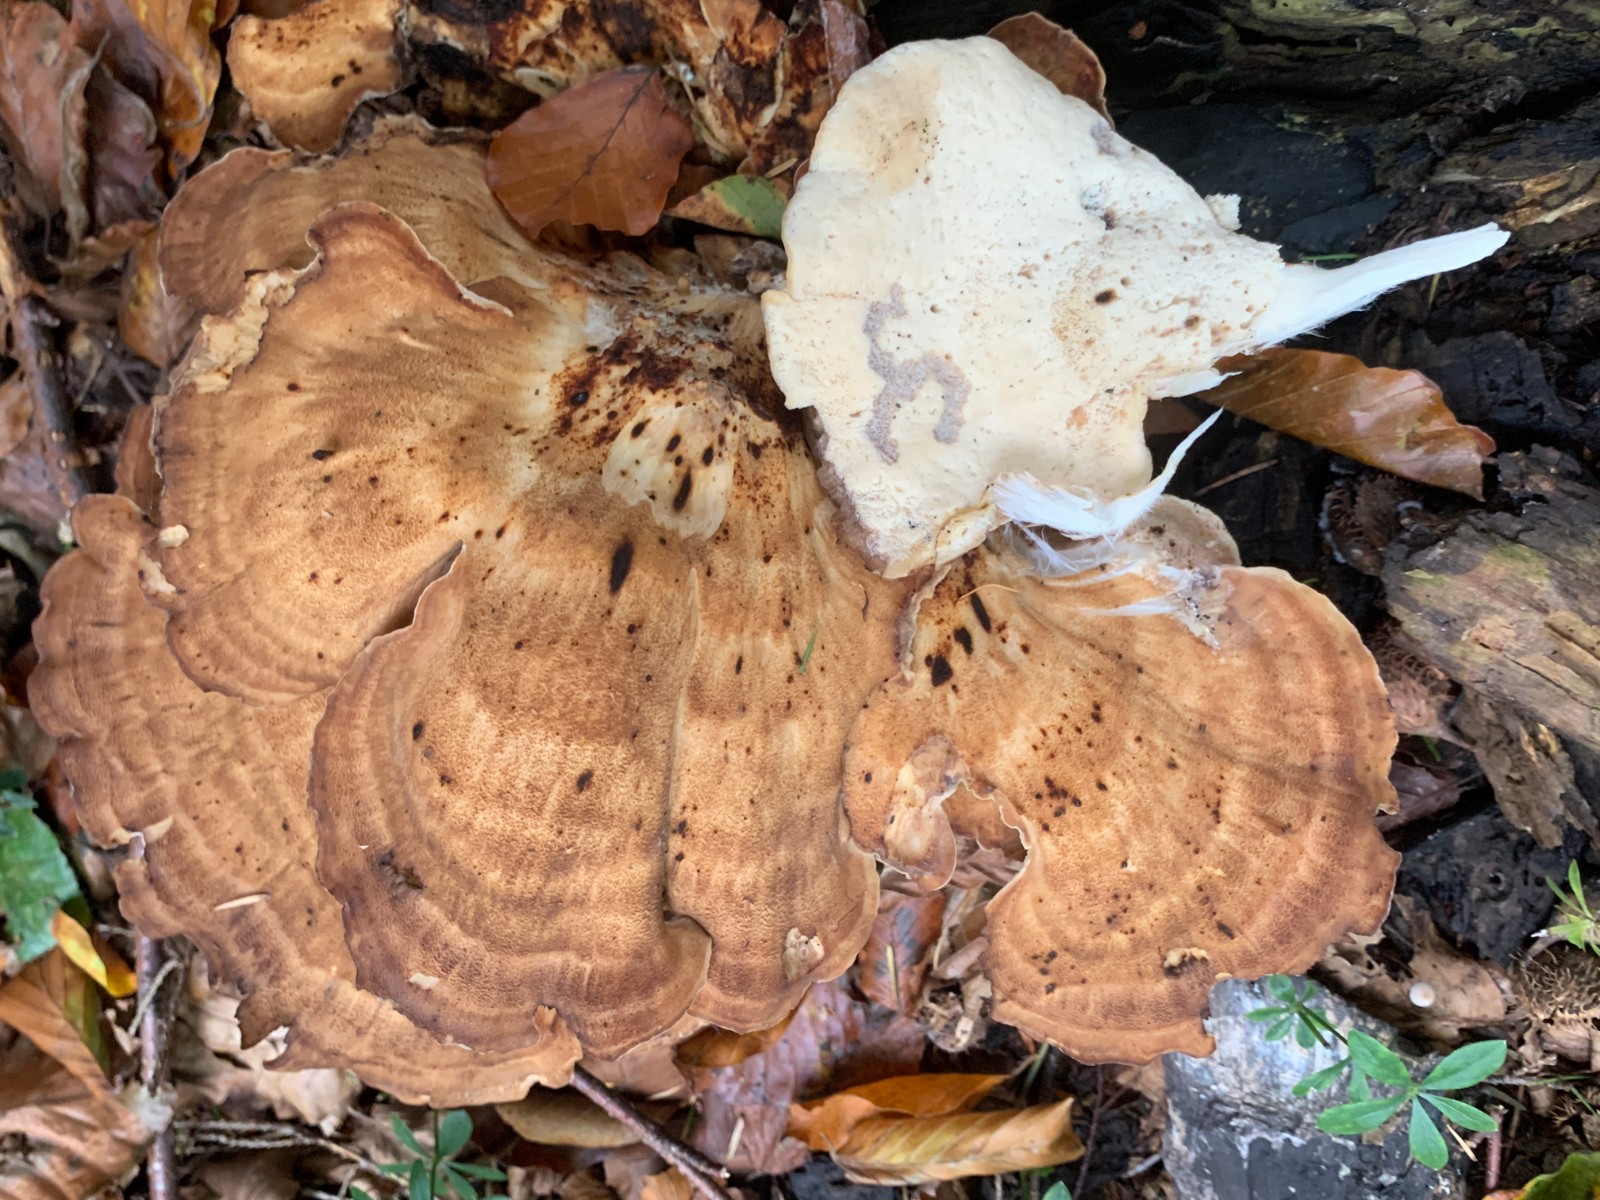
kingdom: Fungi
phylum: Basidiomycota
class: Agaricomycetes
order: Polyporales
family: Meripilaceae
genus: Meripilus
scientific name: Meripilus giganteus
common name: kæmpeporesvamp
